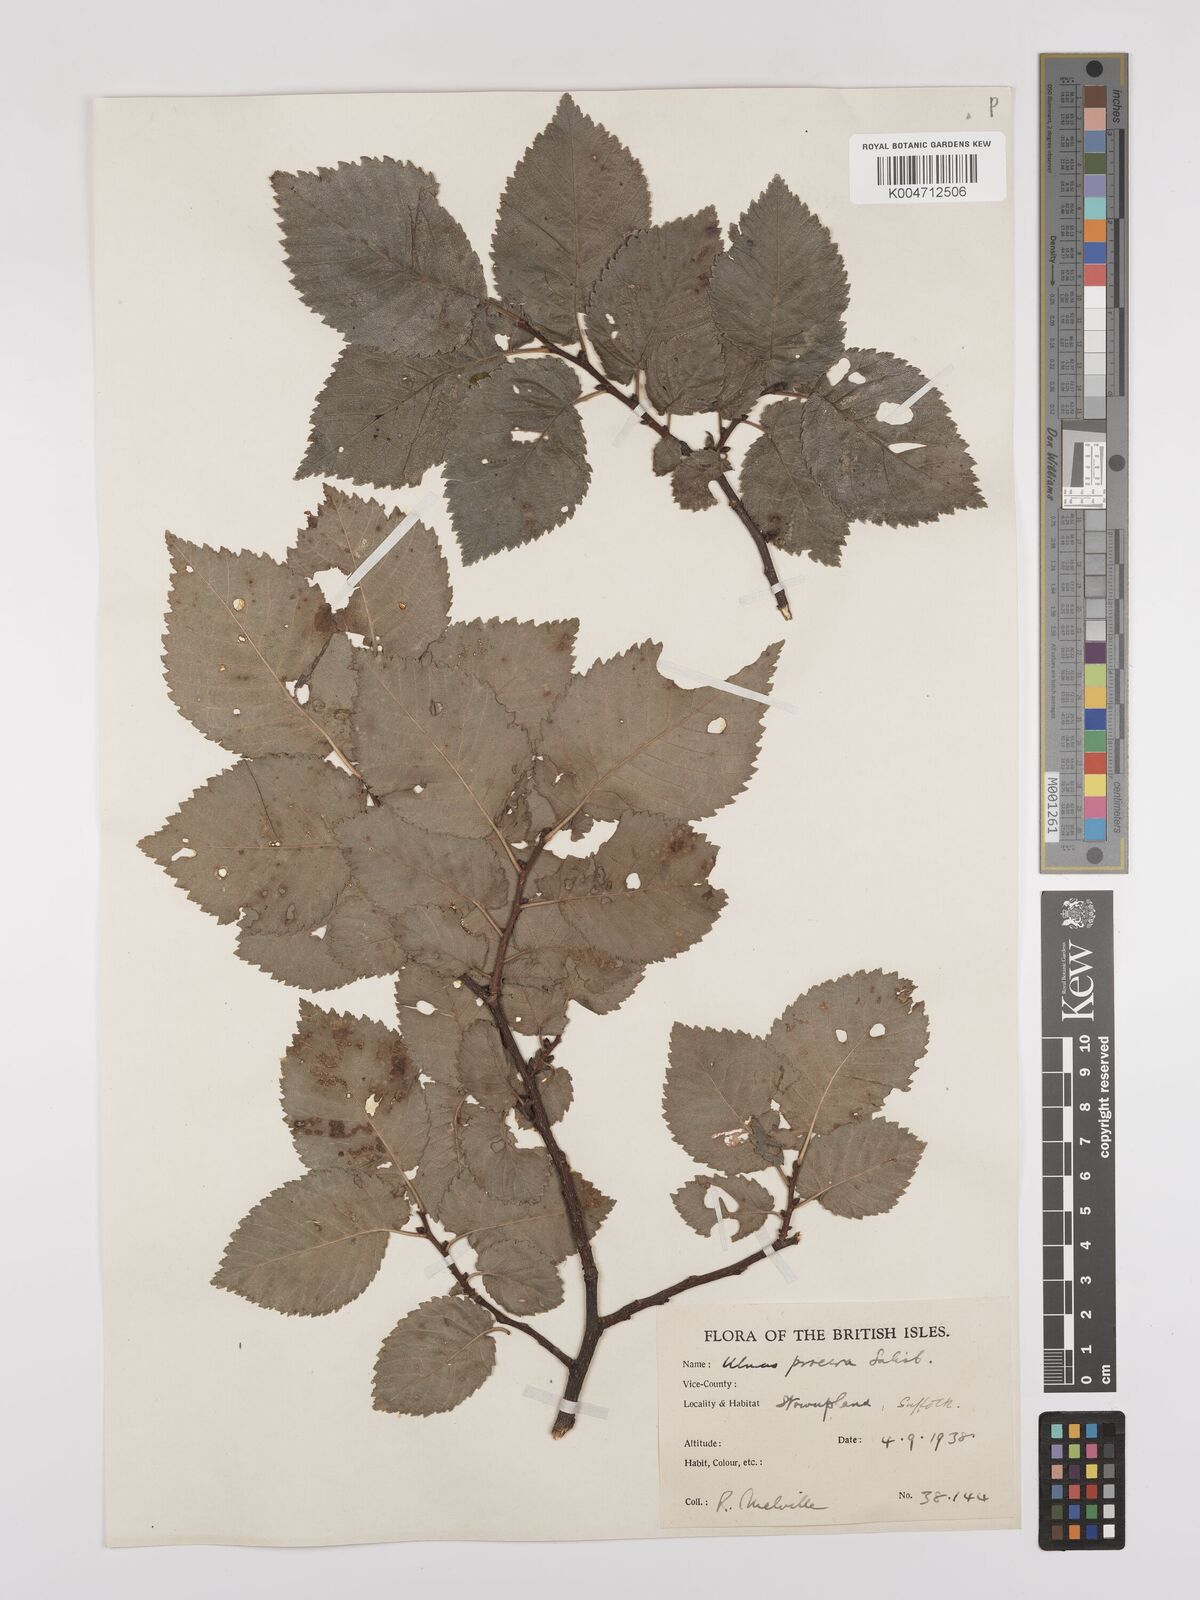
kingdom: Plantae
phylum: Tracheophyta
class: Magnoliopsida
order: Rosales
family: Ulmaceae
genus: Ulmus
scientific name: Ulmus minor
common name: Small-leaved elm
